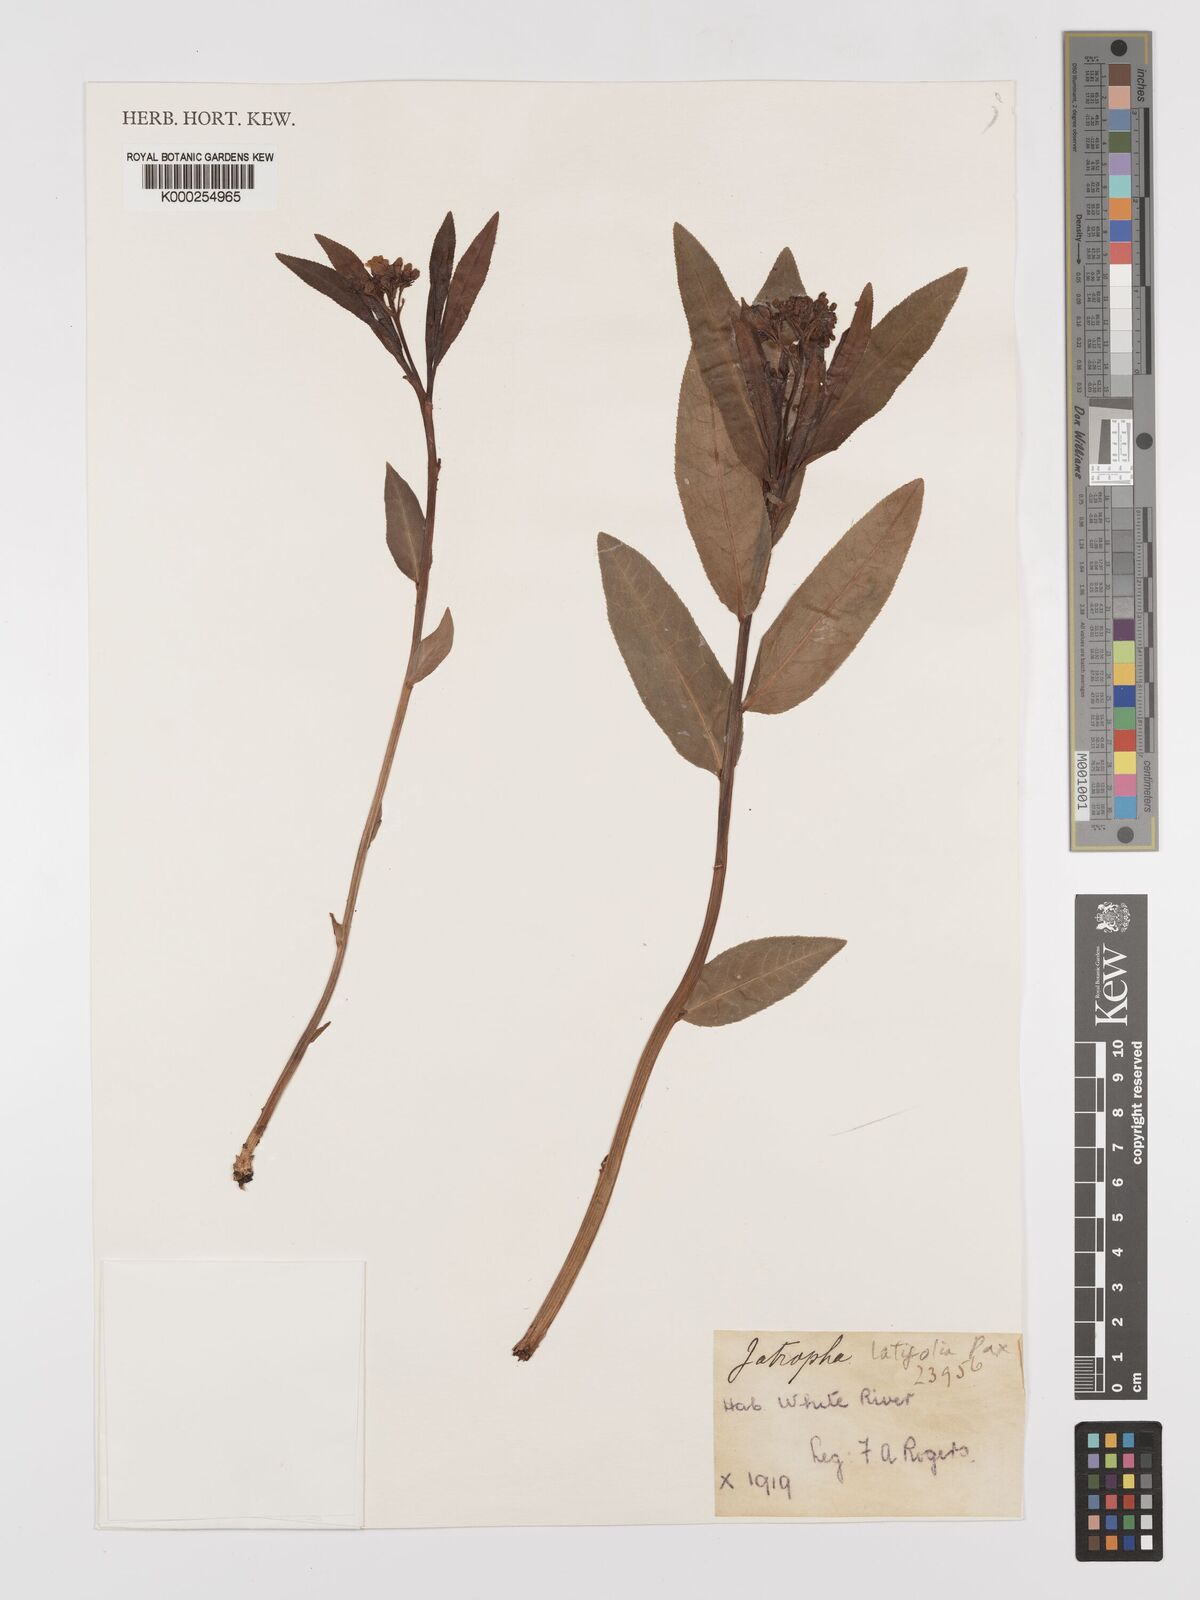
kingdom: Plantae
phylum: Tracheophyta
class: Magnoliopsida
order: Malpighiales
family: Euphorbiaceae
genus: Jatropha
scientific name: Jatropha latifolia
